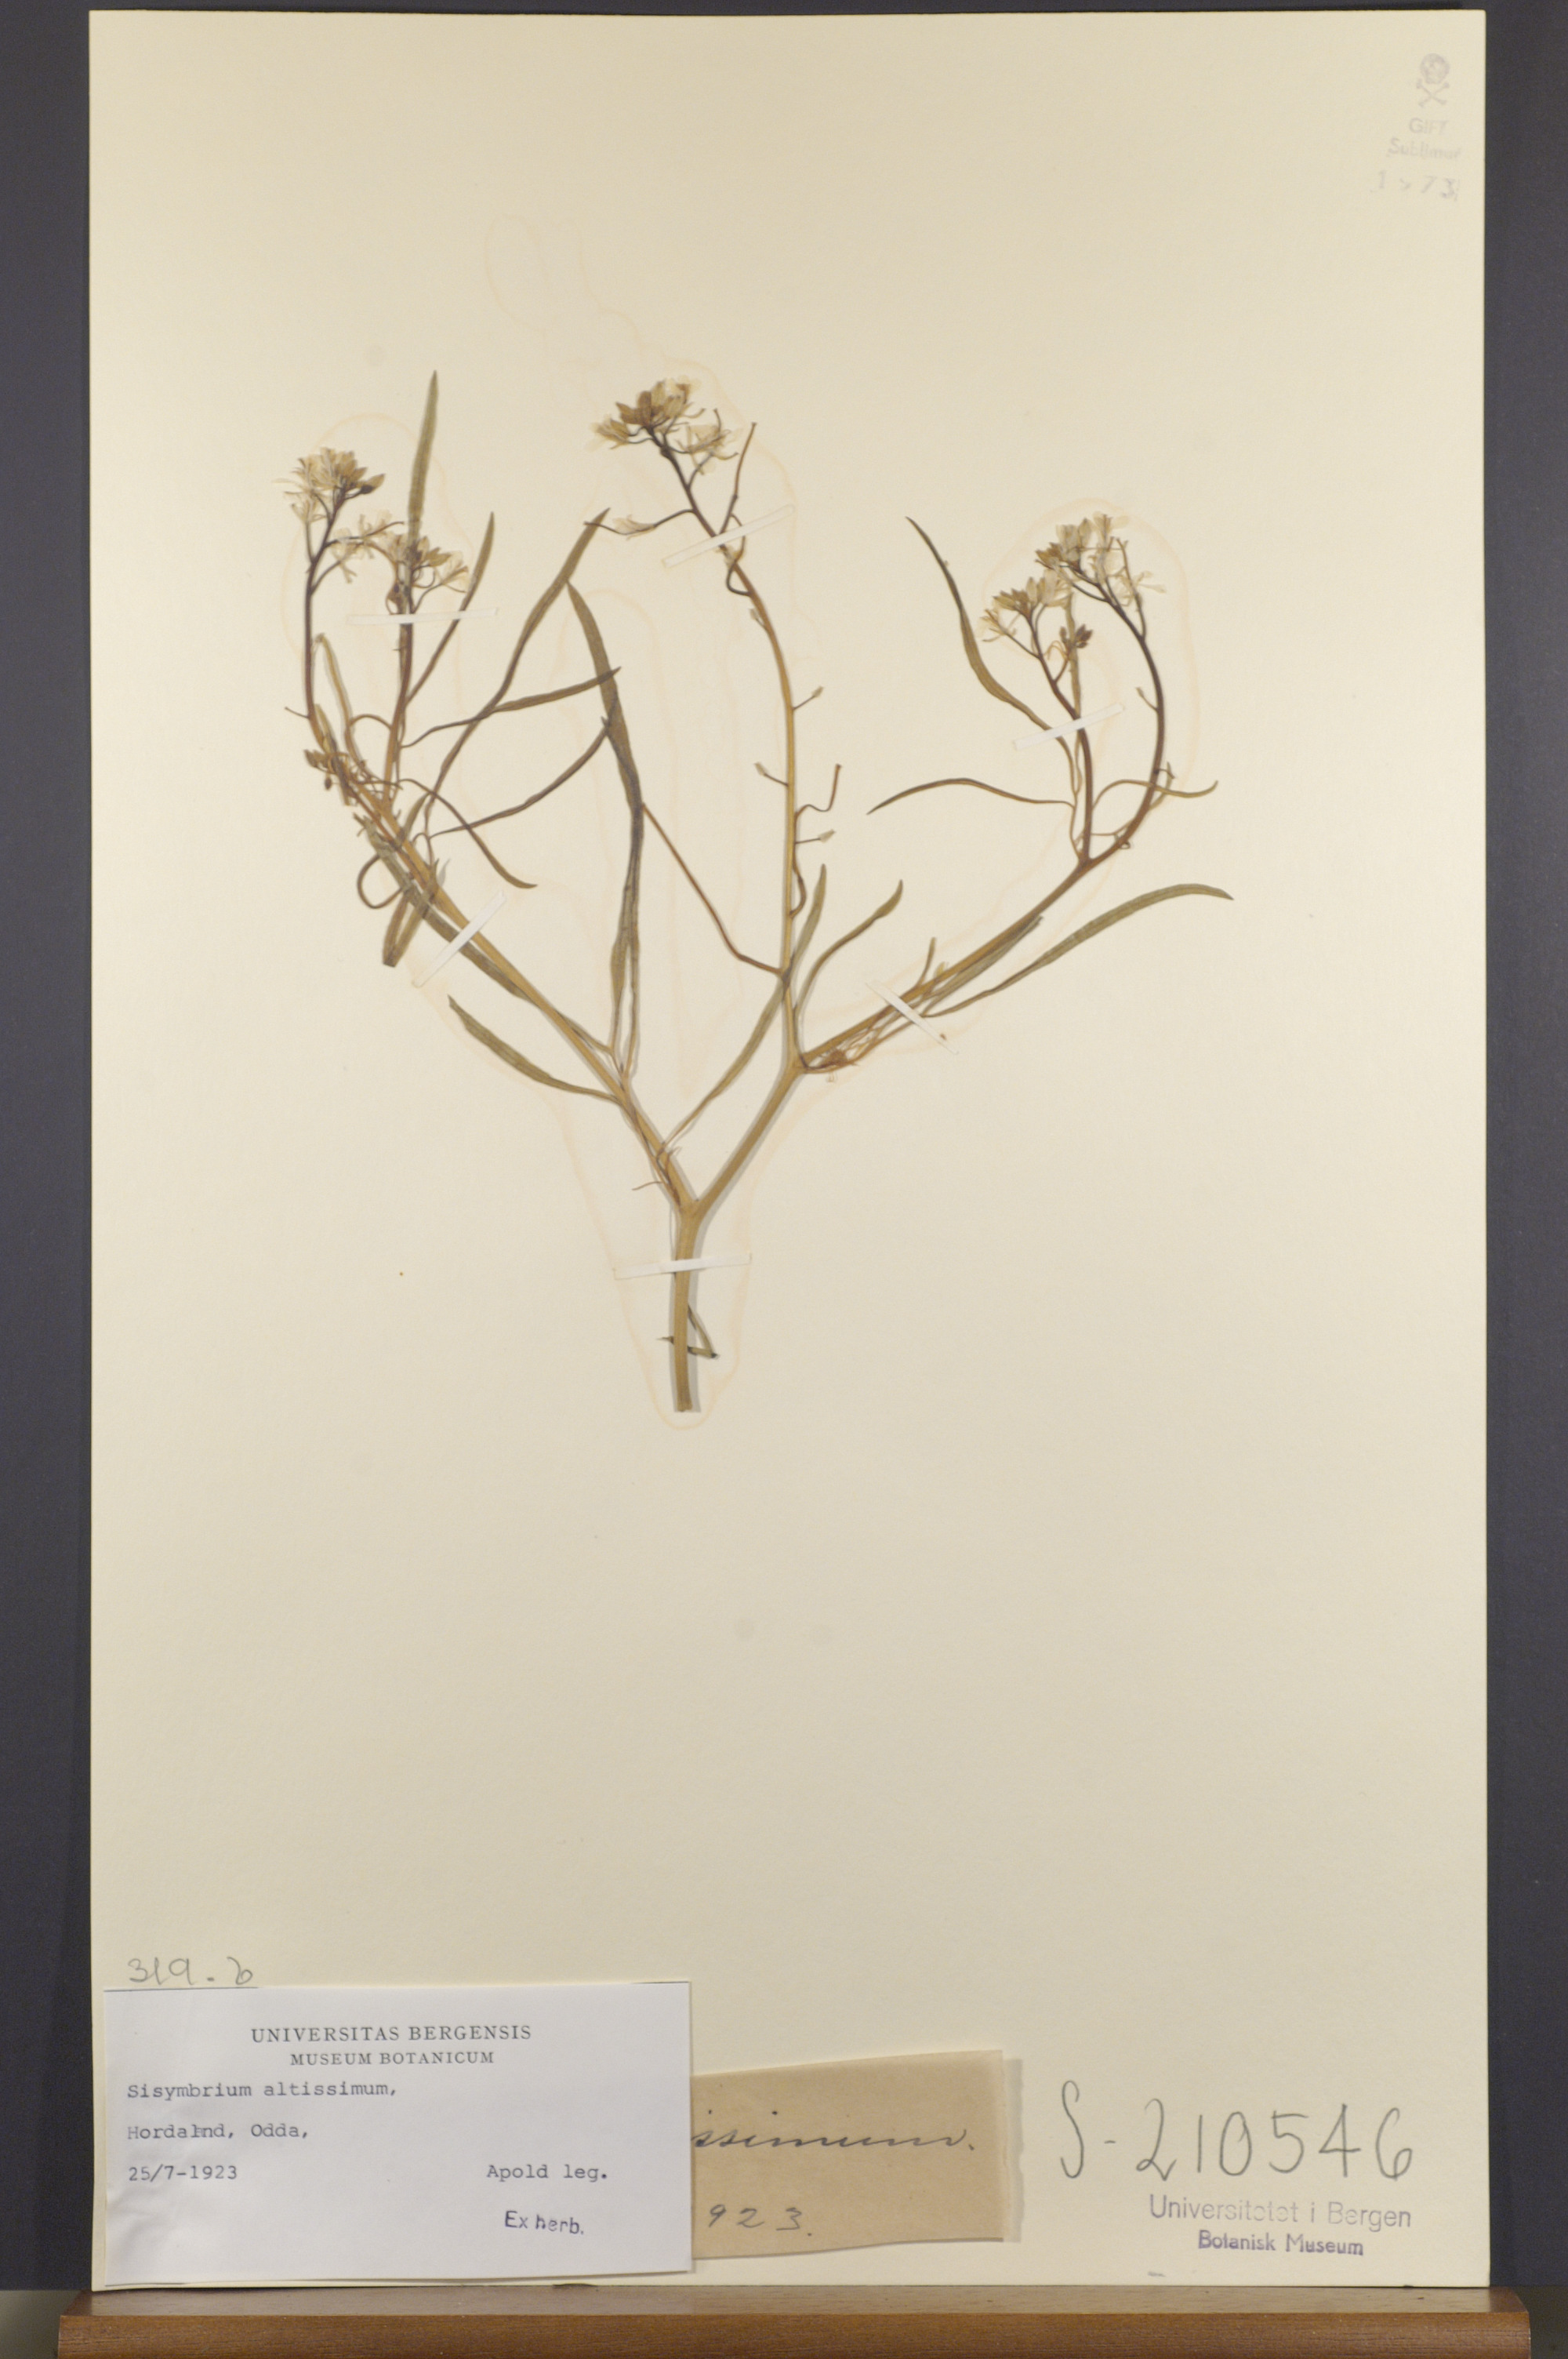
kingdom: Plantae
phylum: Tracheophyta
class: Magnoliopsida
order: Brassicales
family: Brassicaceae
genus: Sisymbrium
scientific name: Sisymbrium altissimum
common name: Tall rocket
